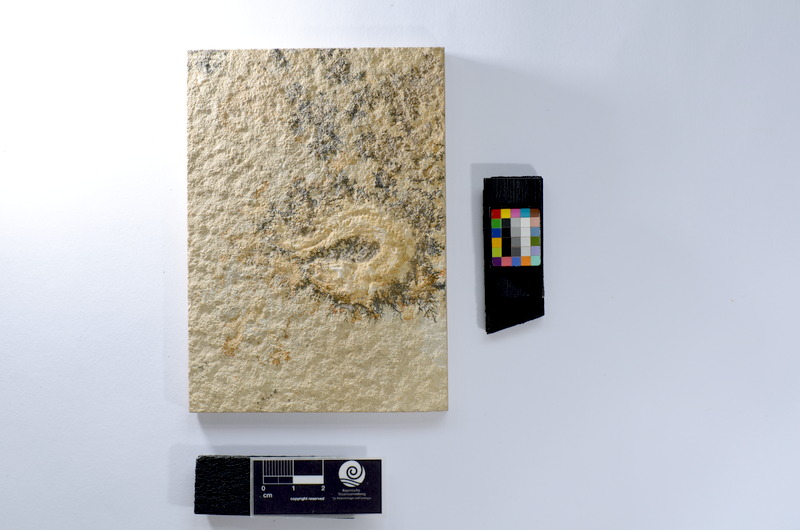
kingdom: Animalia
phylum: Chordata
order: Salmoniformes
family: Orthogonikleithridae
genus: Leptolepides
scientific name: Leptolepides sprattiformis
